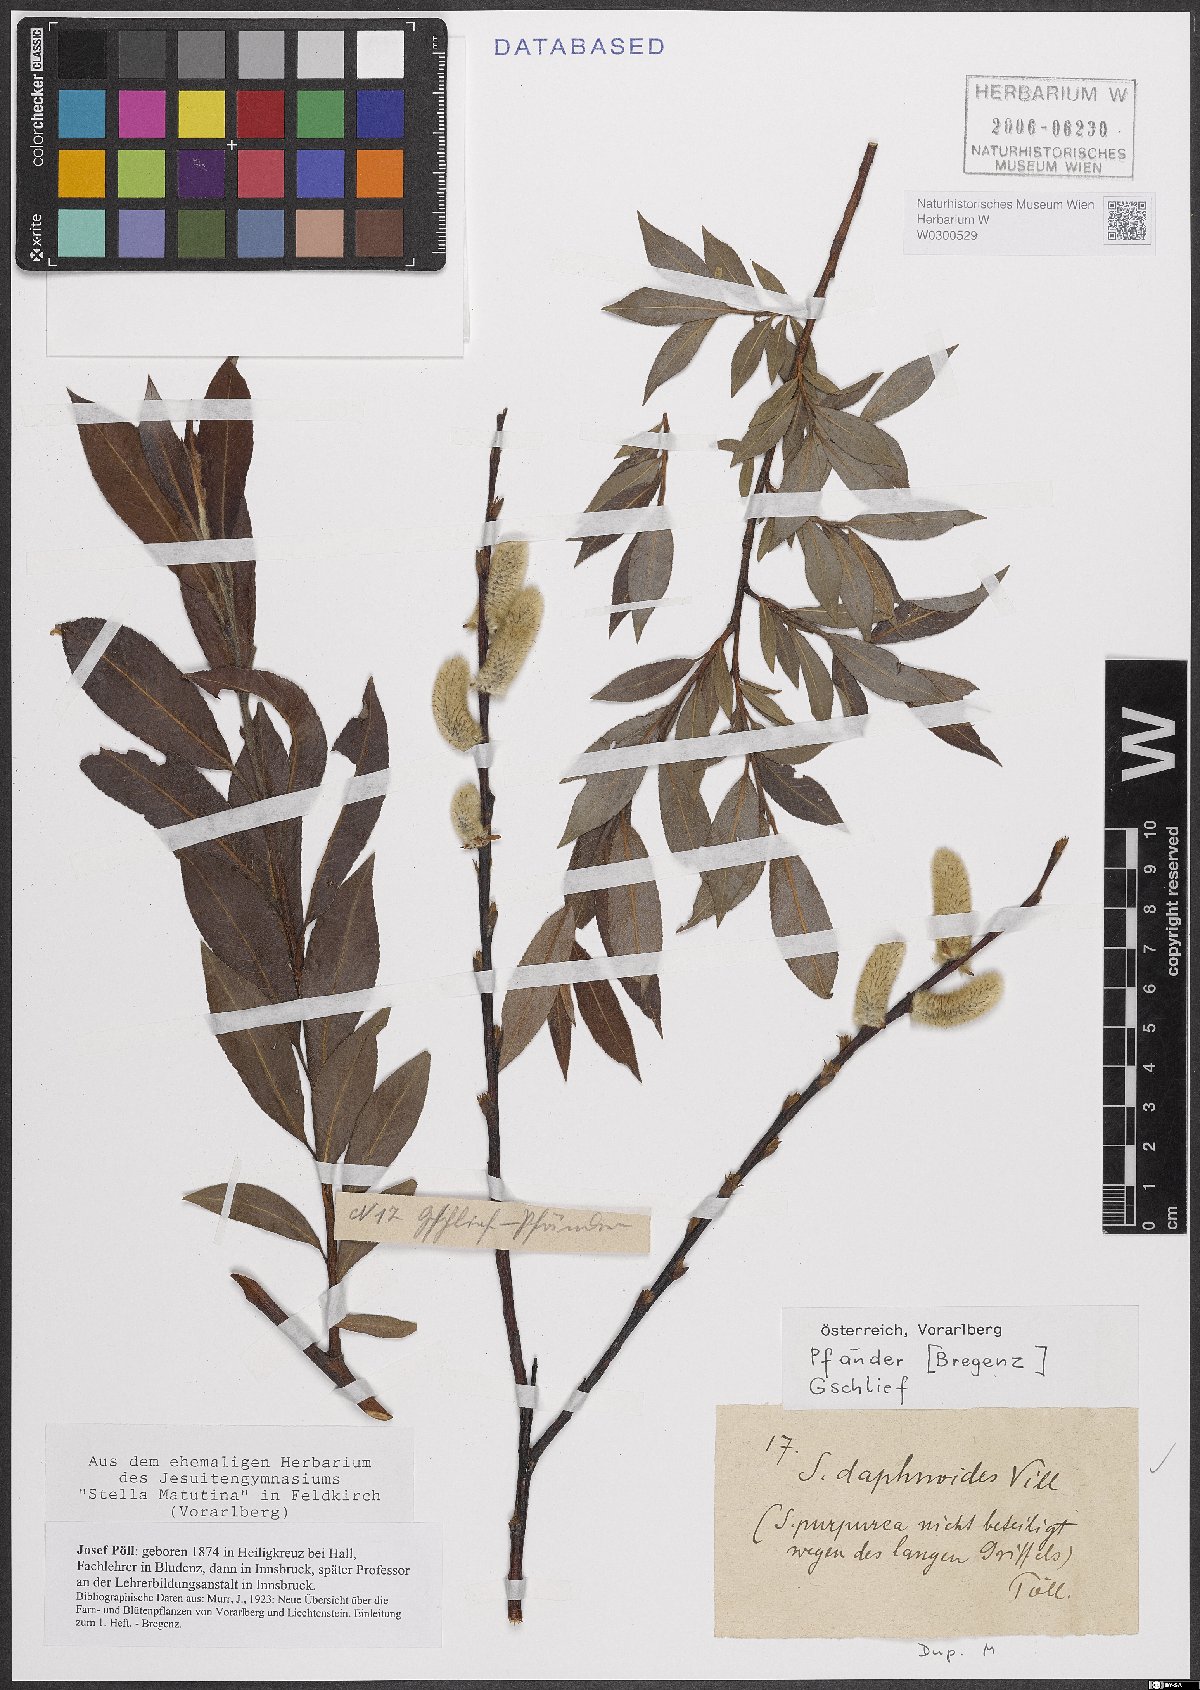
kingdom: Plantae
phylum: Tracheophyta
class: Magnoliopsida
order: Malpighiales
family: Salicaceae
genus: Salix
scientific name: Salix daphnoides
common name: European violet-willow
